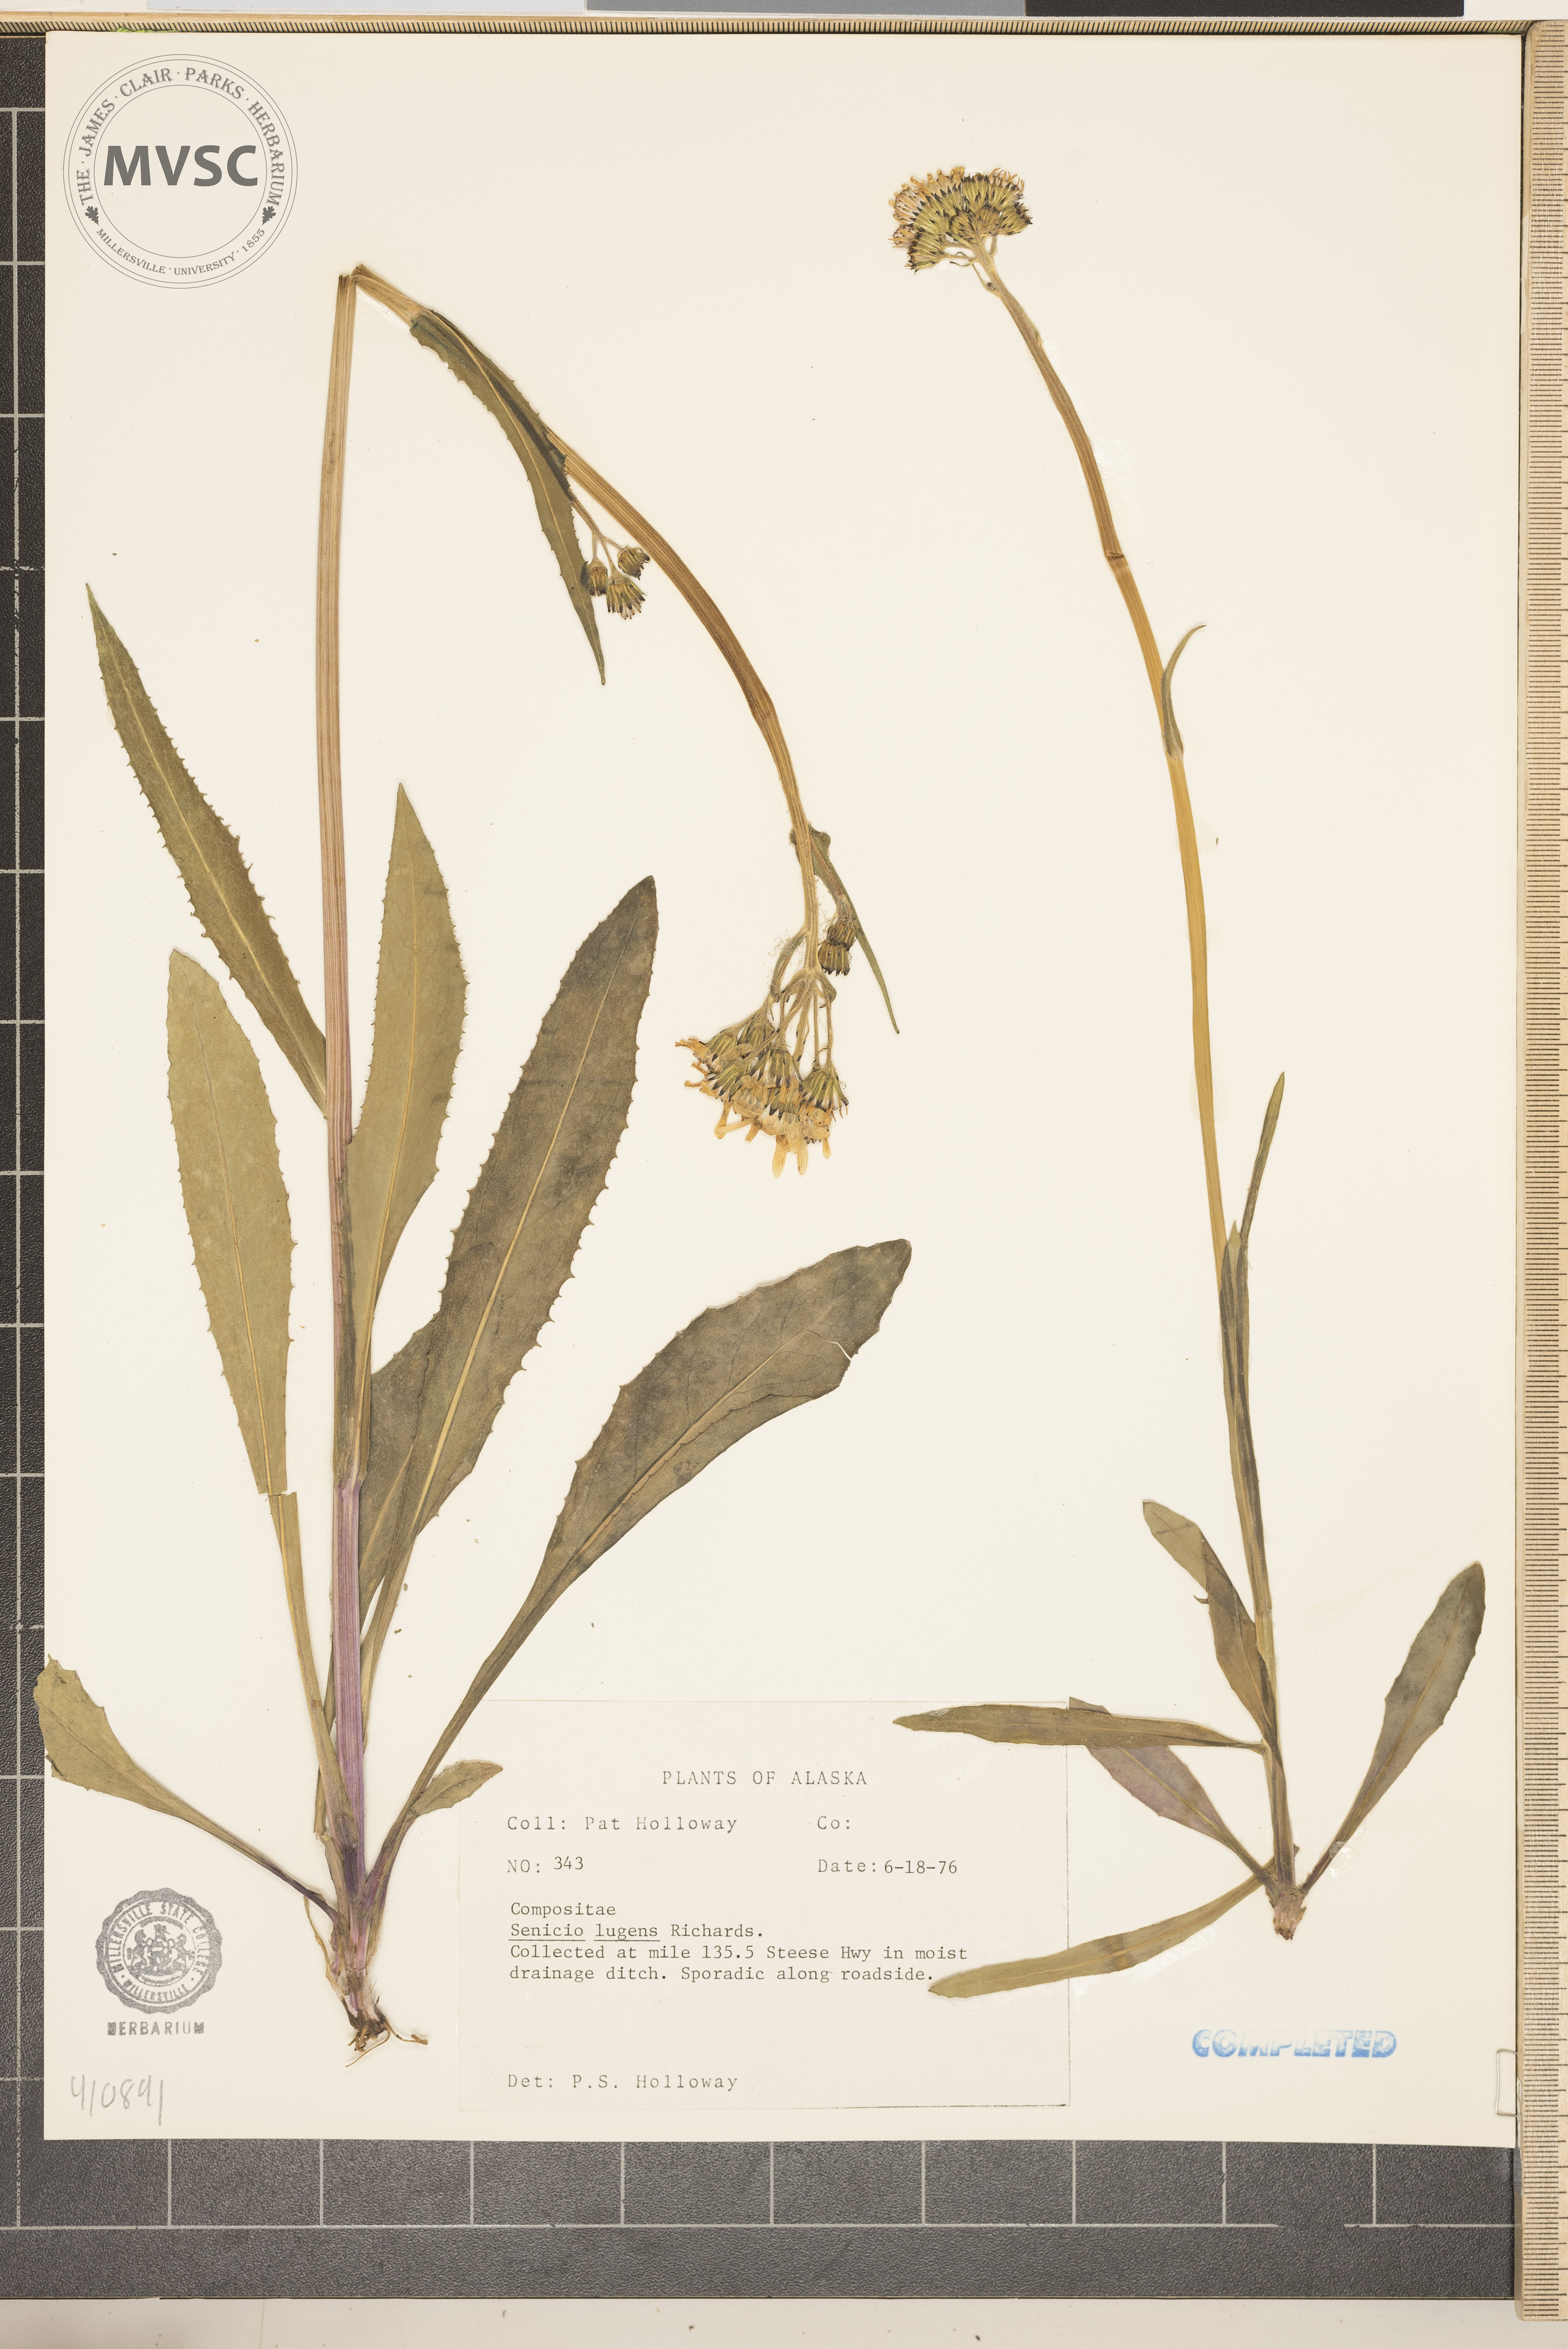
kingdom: Plantae
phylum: Tracheophyta
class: Magnoliopsida
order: Asterales
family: Asteraceae
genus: Senecio
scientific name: Senecio lugens
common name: Black-tip groundsel
